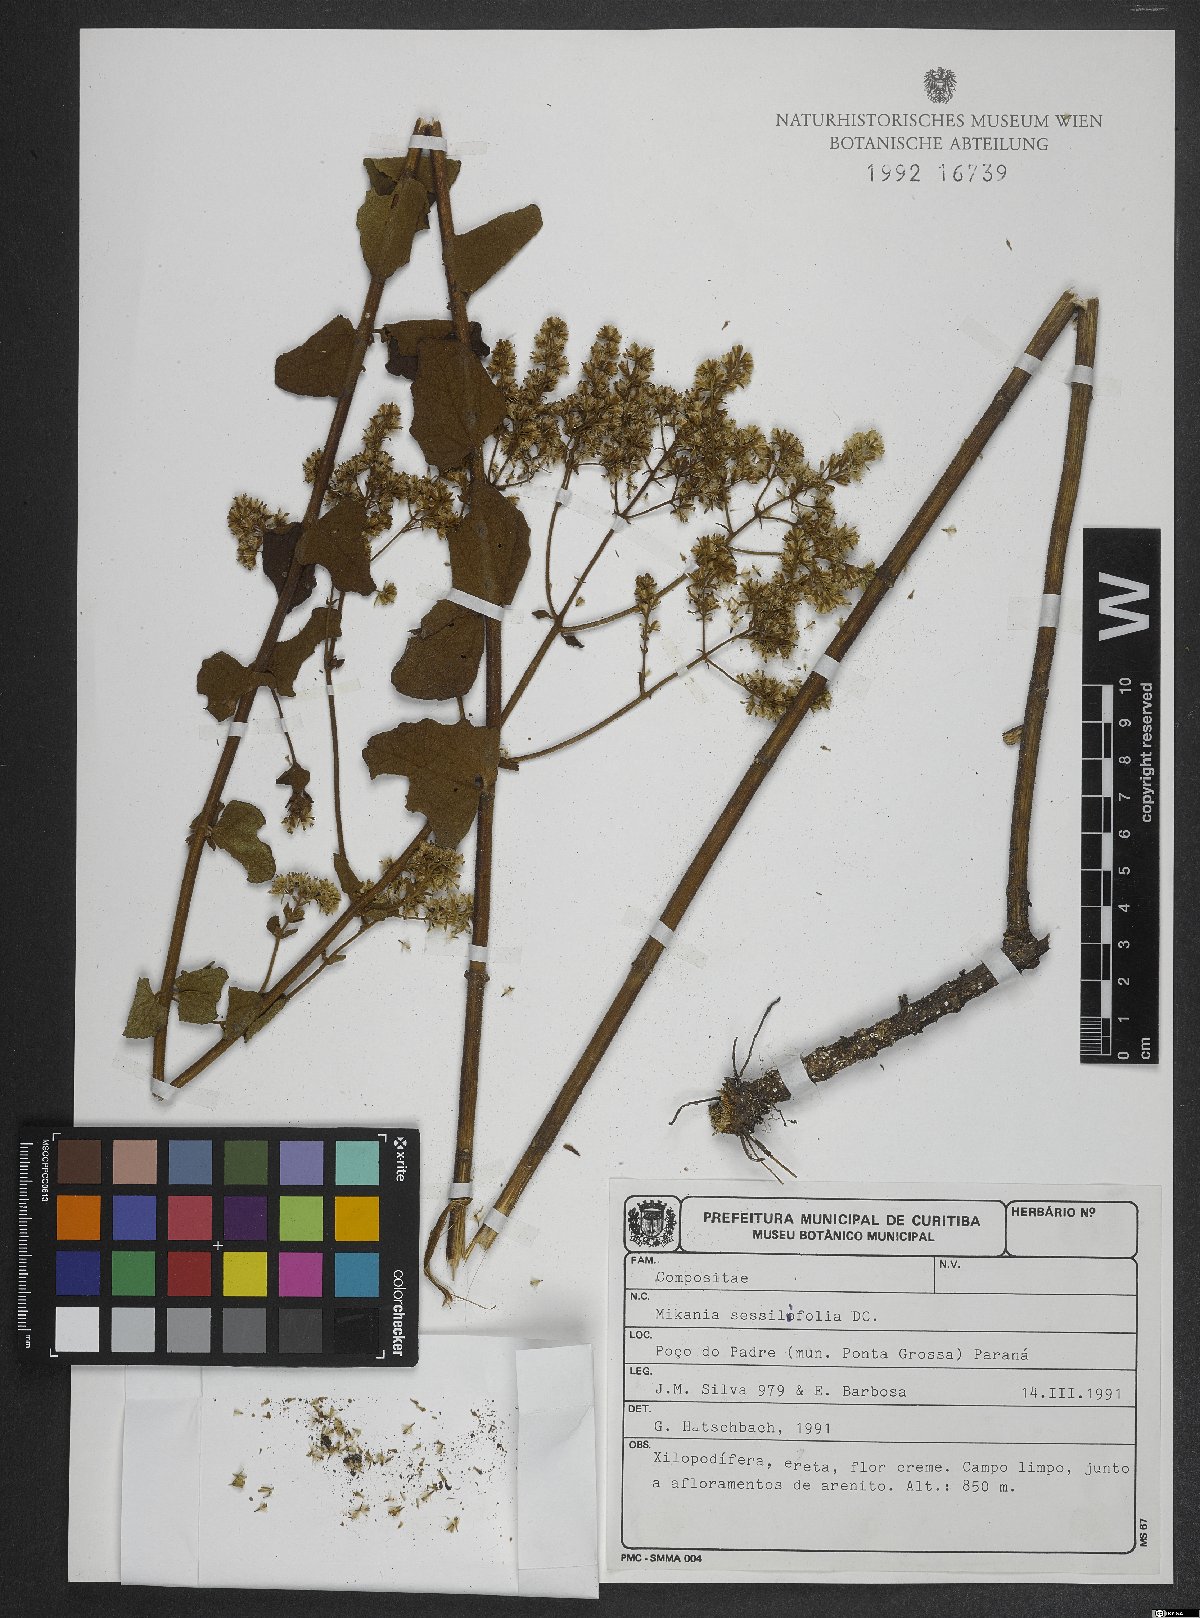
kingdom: Plantae
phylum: Tracheophyta
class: Magnoliopsida
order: Asterales
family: Asteraceae
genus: Mikania
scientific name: Mikania sessilifolia
